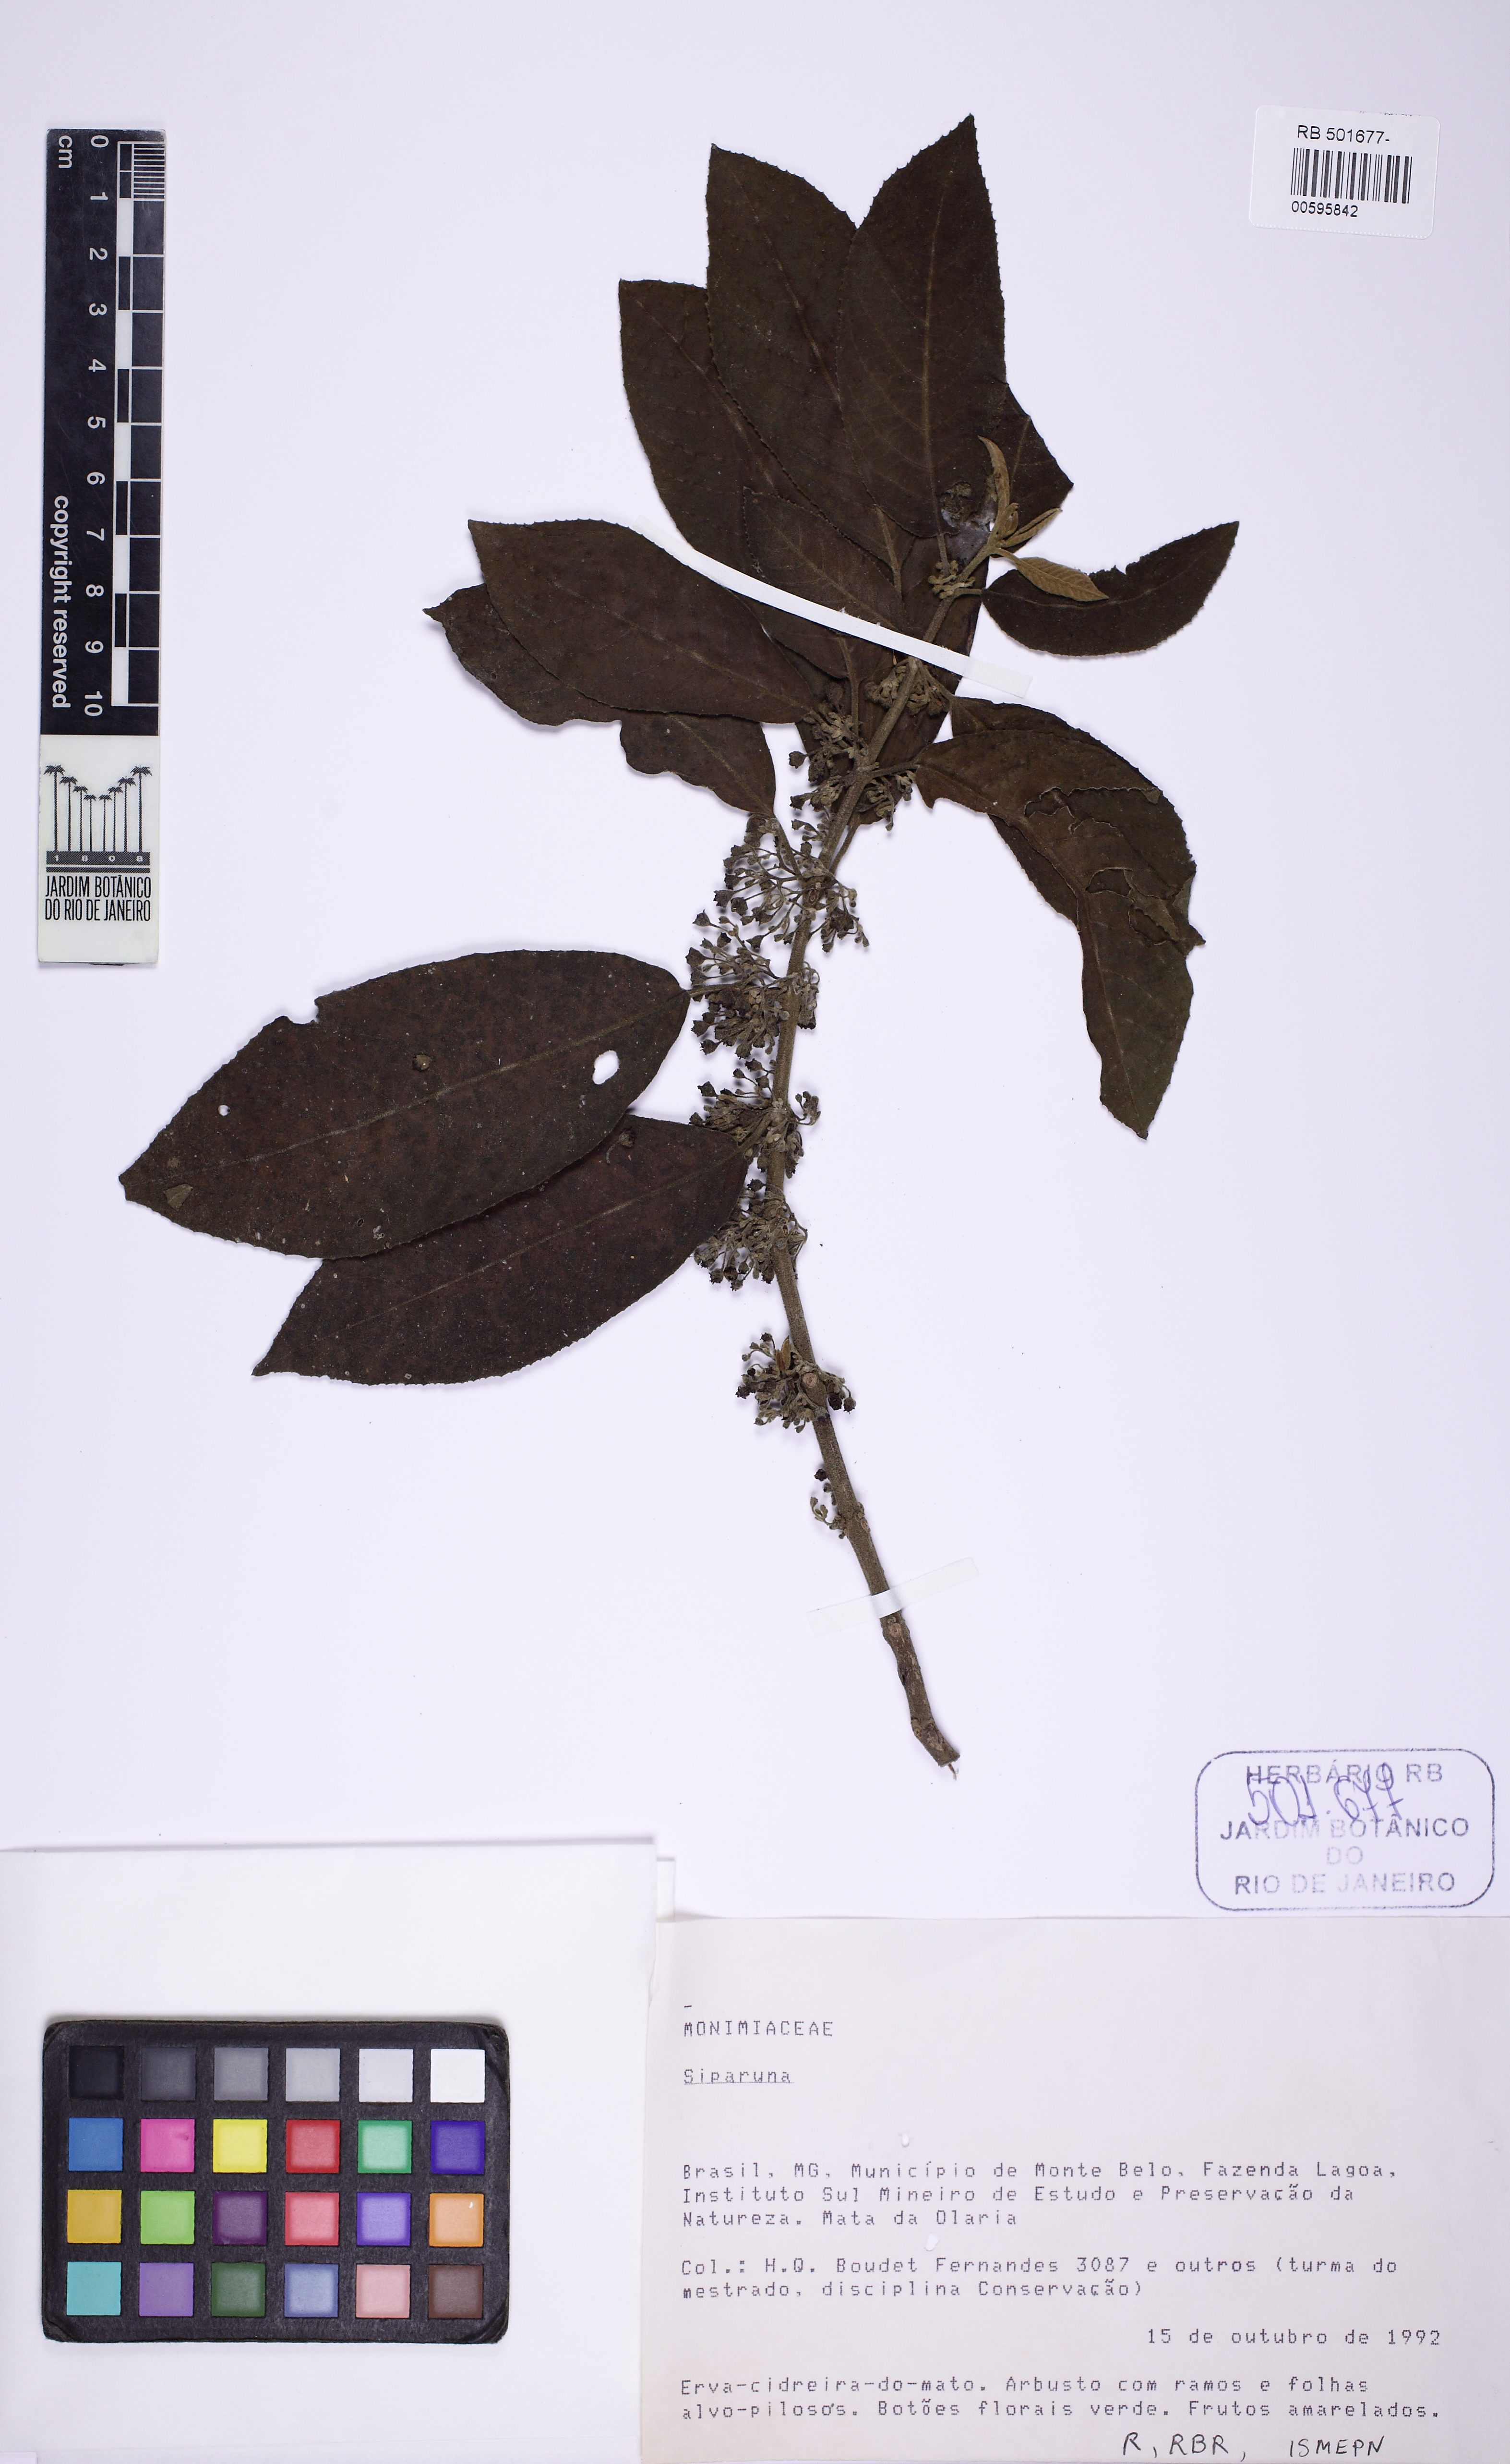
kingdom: Plantae
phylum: Tracheophyta
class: Magnoliopsida
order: Laurales
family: Siparunaceae
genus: Siparuna
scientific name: Siparuna brasiliensis
